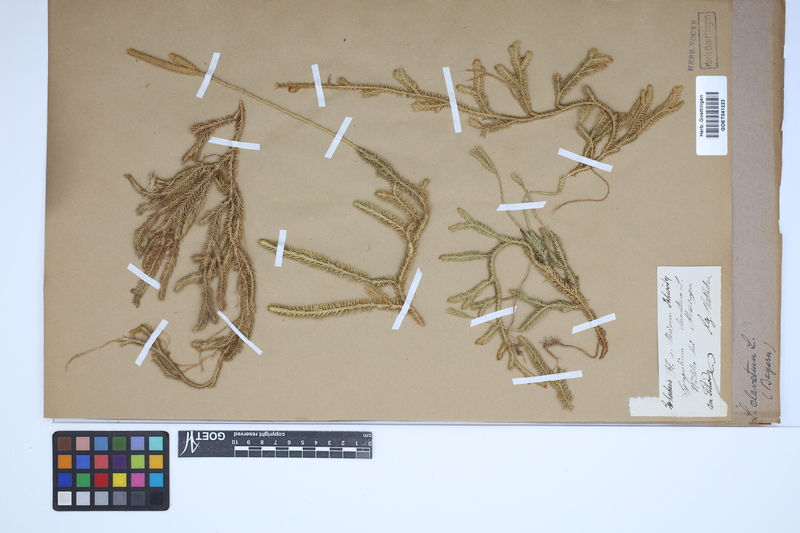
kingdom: Plantae
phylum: Tracheophyta
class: Lycopodiopsida
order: Lycopodiales
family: Lycopodiaceae
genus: Lycopodium
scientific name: Lycopodium clavatum
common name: Stag's-horn clubmoss
